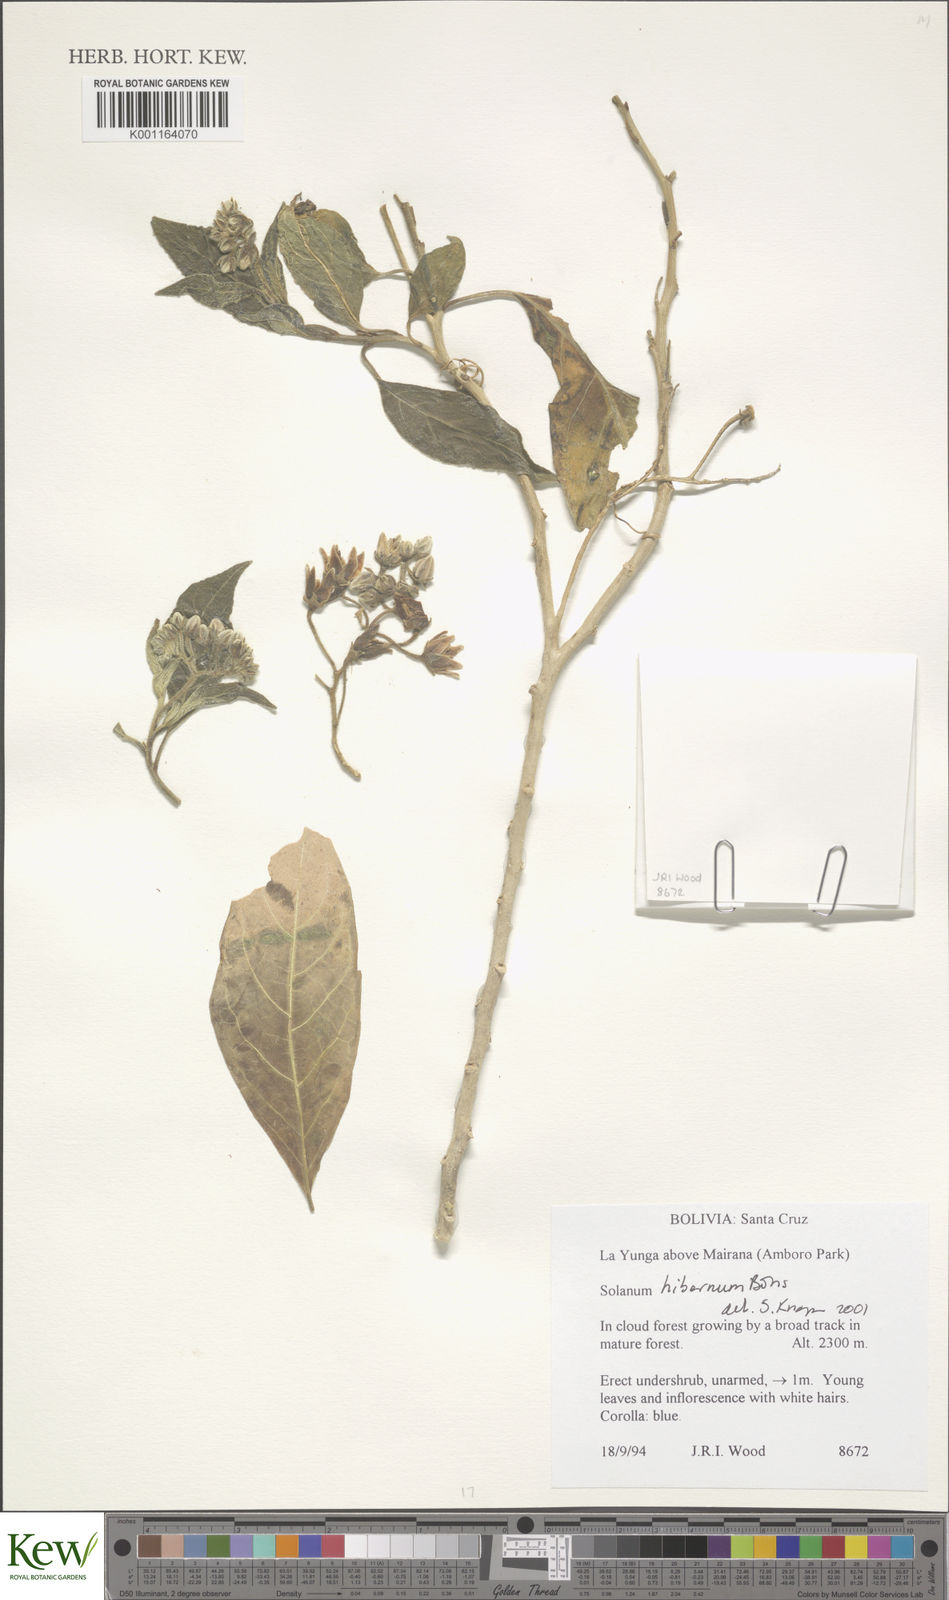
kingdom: Plantae
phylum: Tracheophyta
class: Magnoliopsida
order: Solanales
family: Solanaceae
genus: Solanum
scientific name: Solanum hibernum
